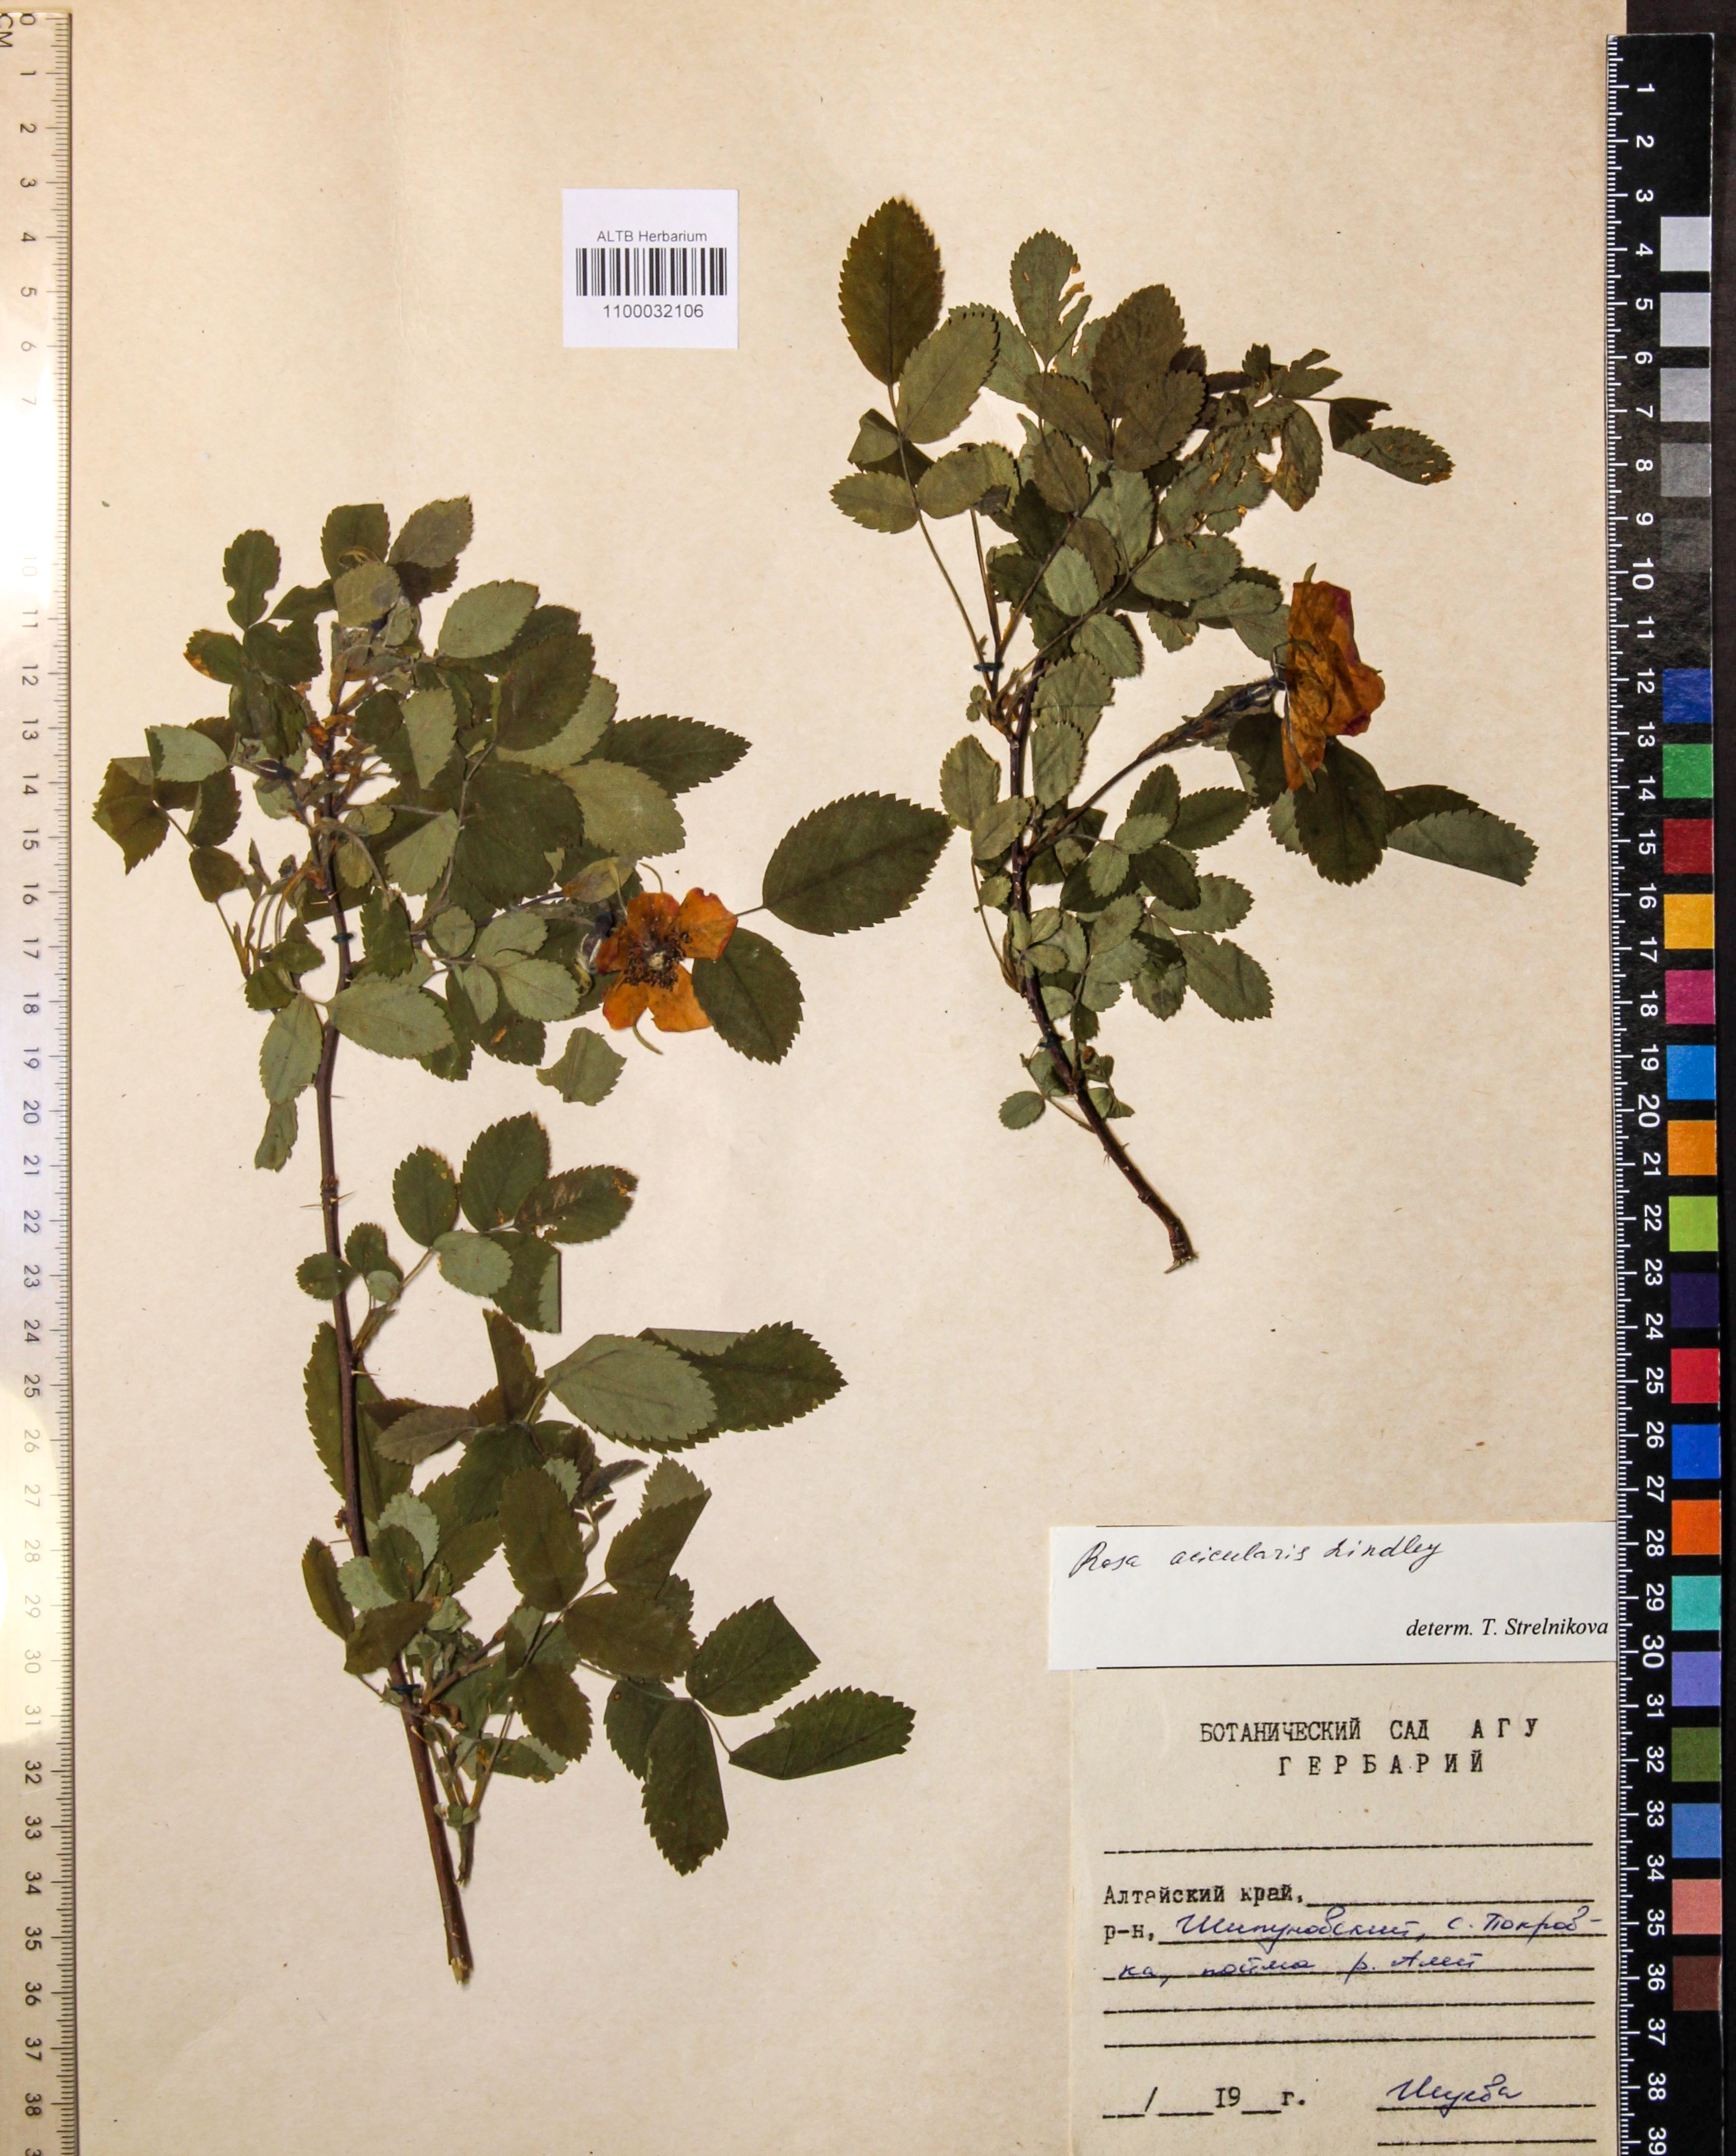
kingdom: Plantae
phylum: Tracheophyta
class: Magnoliopsida
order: Rosales
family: Rosaceae
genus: Rosa
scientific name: Rosa acicularis
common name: Prickly rose
